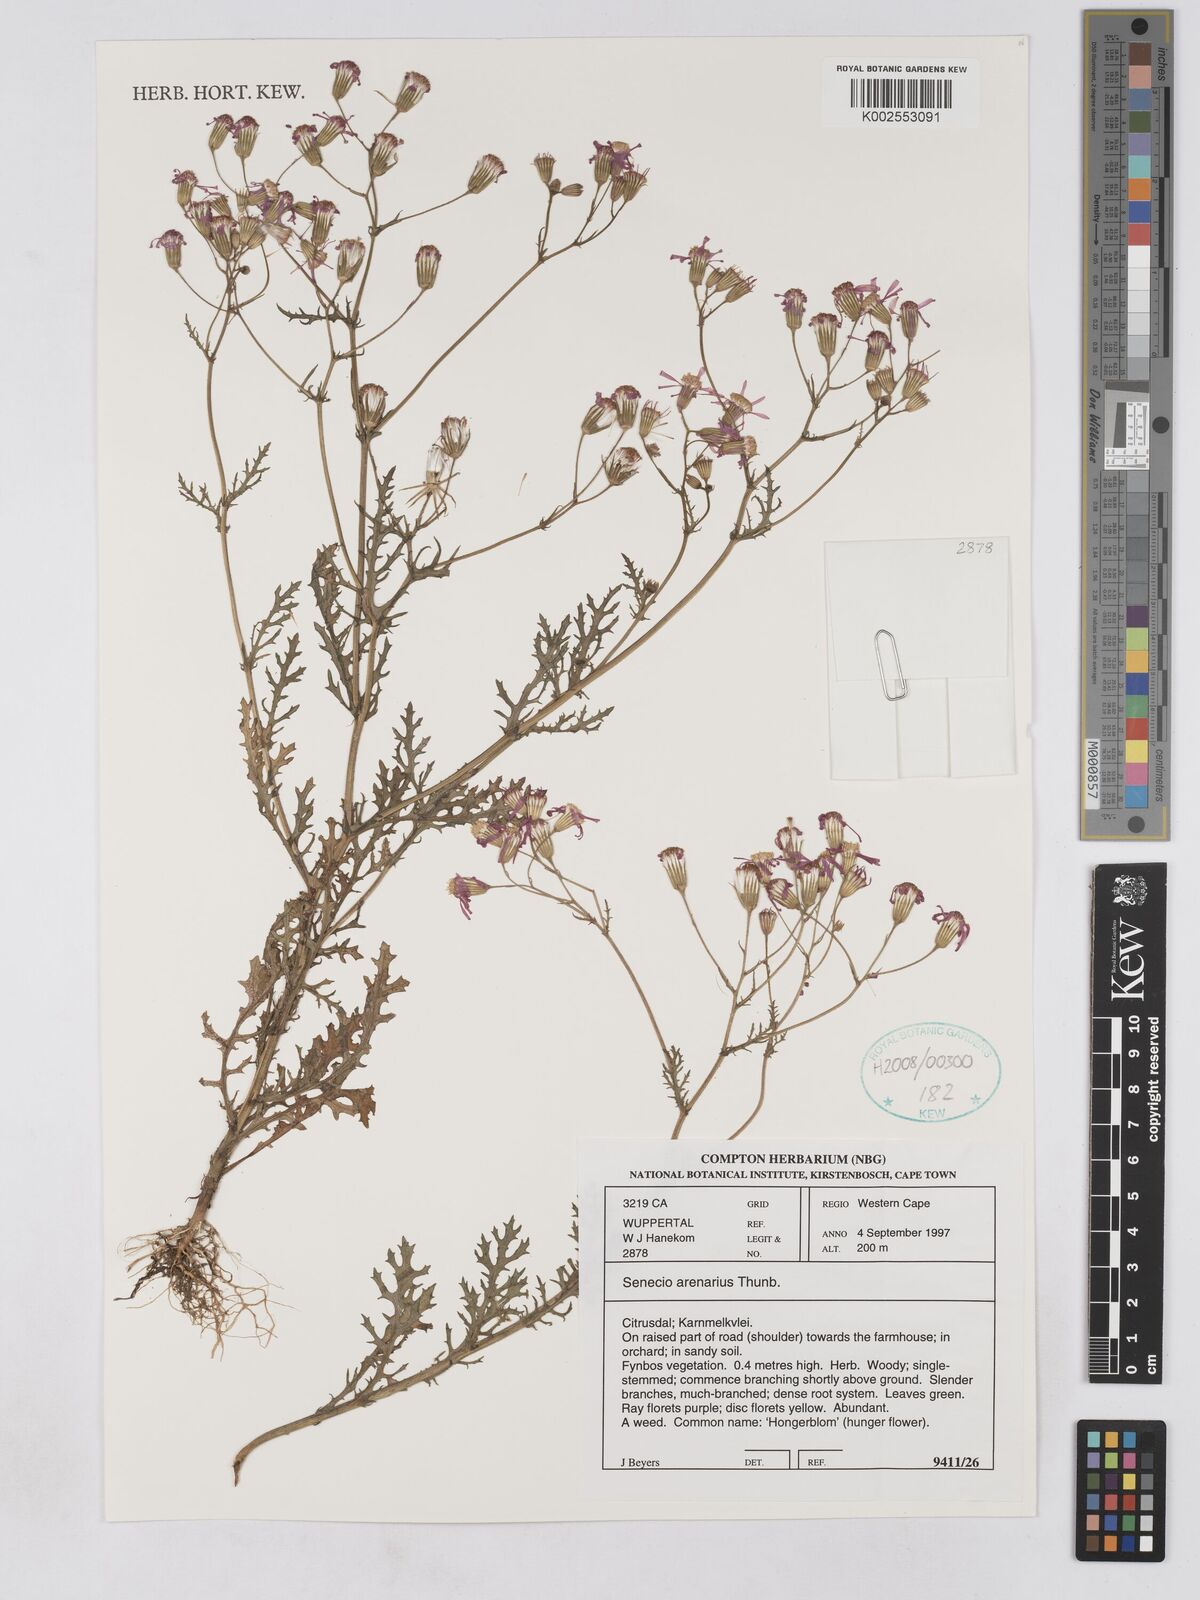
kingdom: Plantae
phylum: Tracheophyta
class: Magnoliopsida
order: Asterales
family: Asteraceae
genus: Senecio
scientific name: Senecio arenarius
